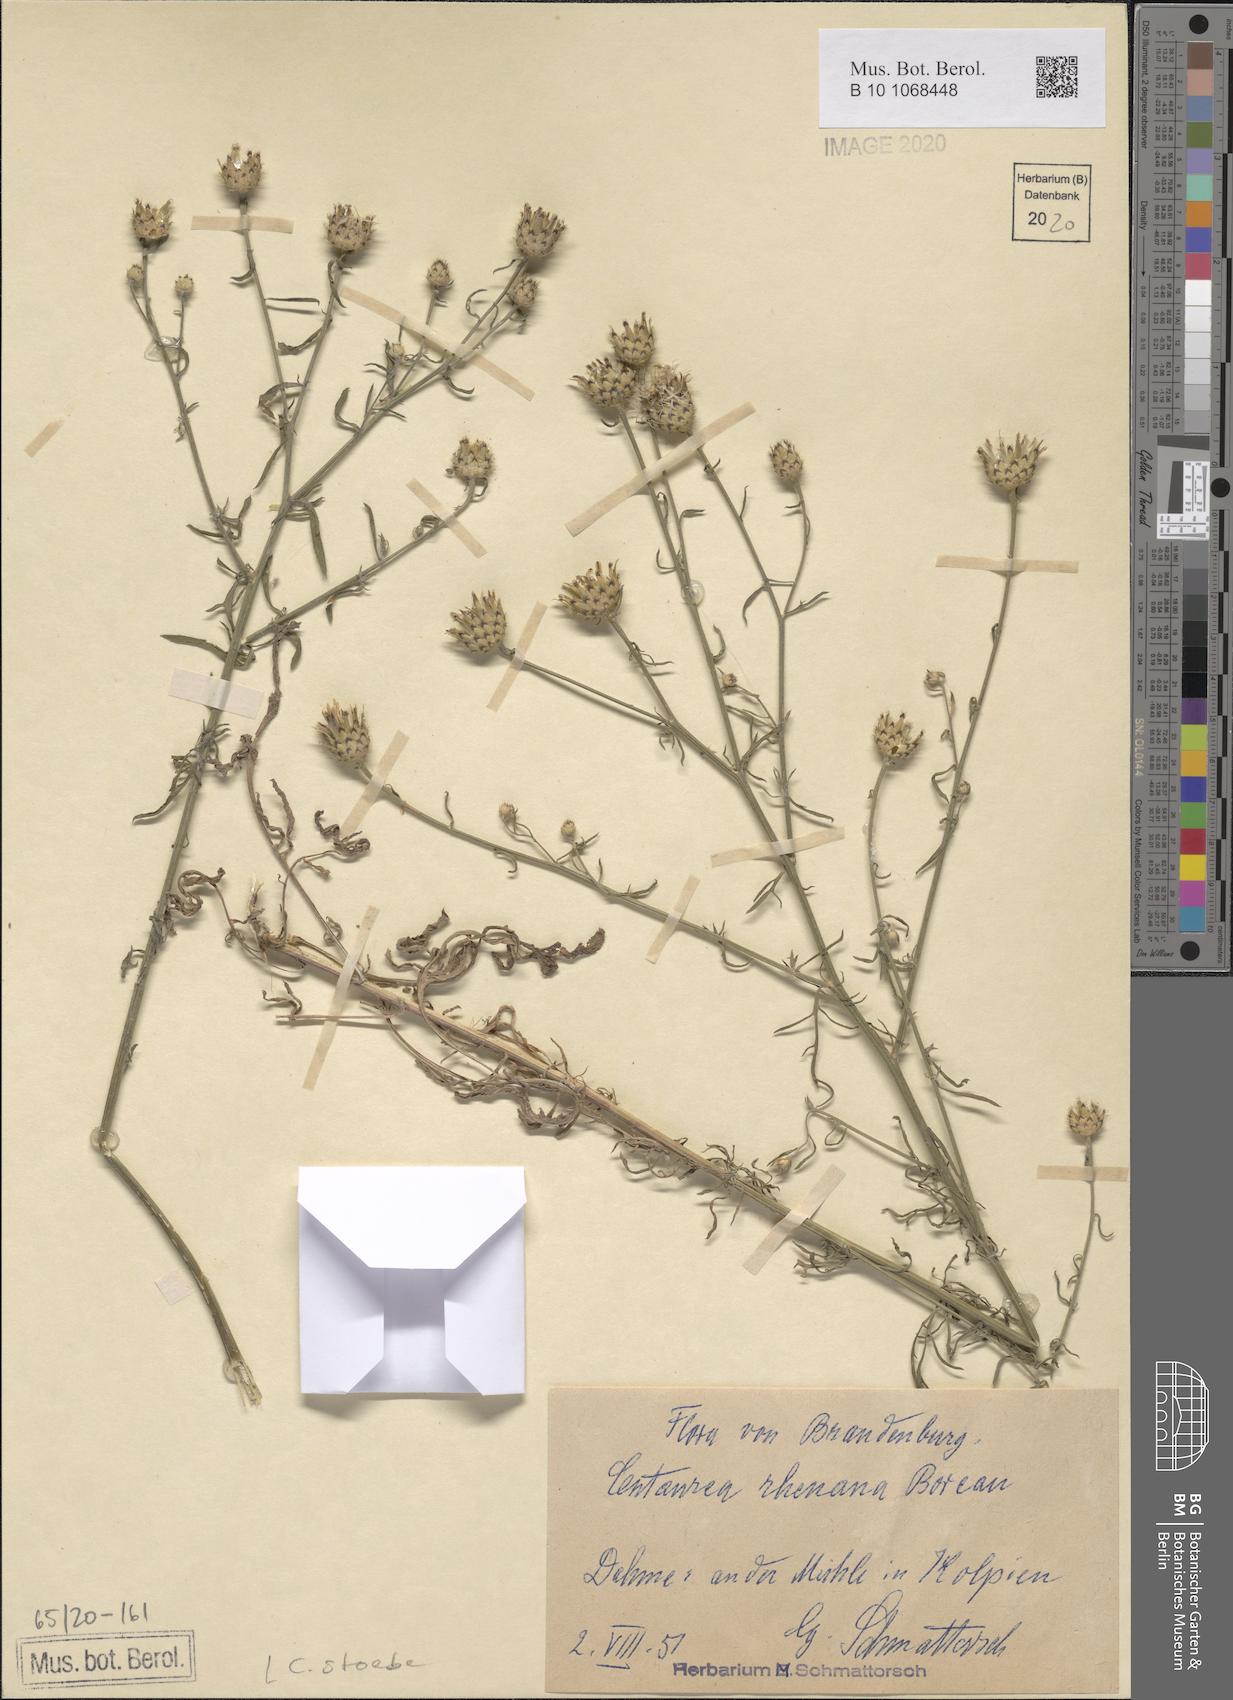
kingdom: Plantae
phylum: Tracheophyta
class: Magnoliopsida
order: Asterales
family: Asteraceae
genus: Centaurea
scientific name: Centaurea stoebe
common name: Spotted knapweed
